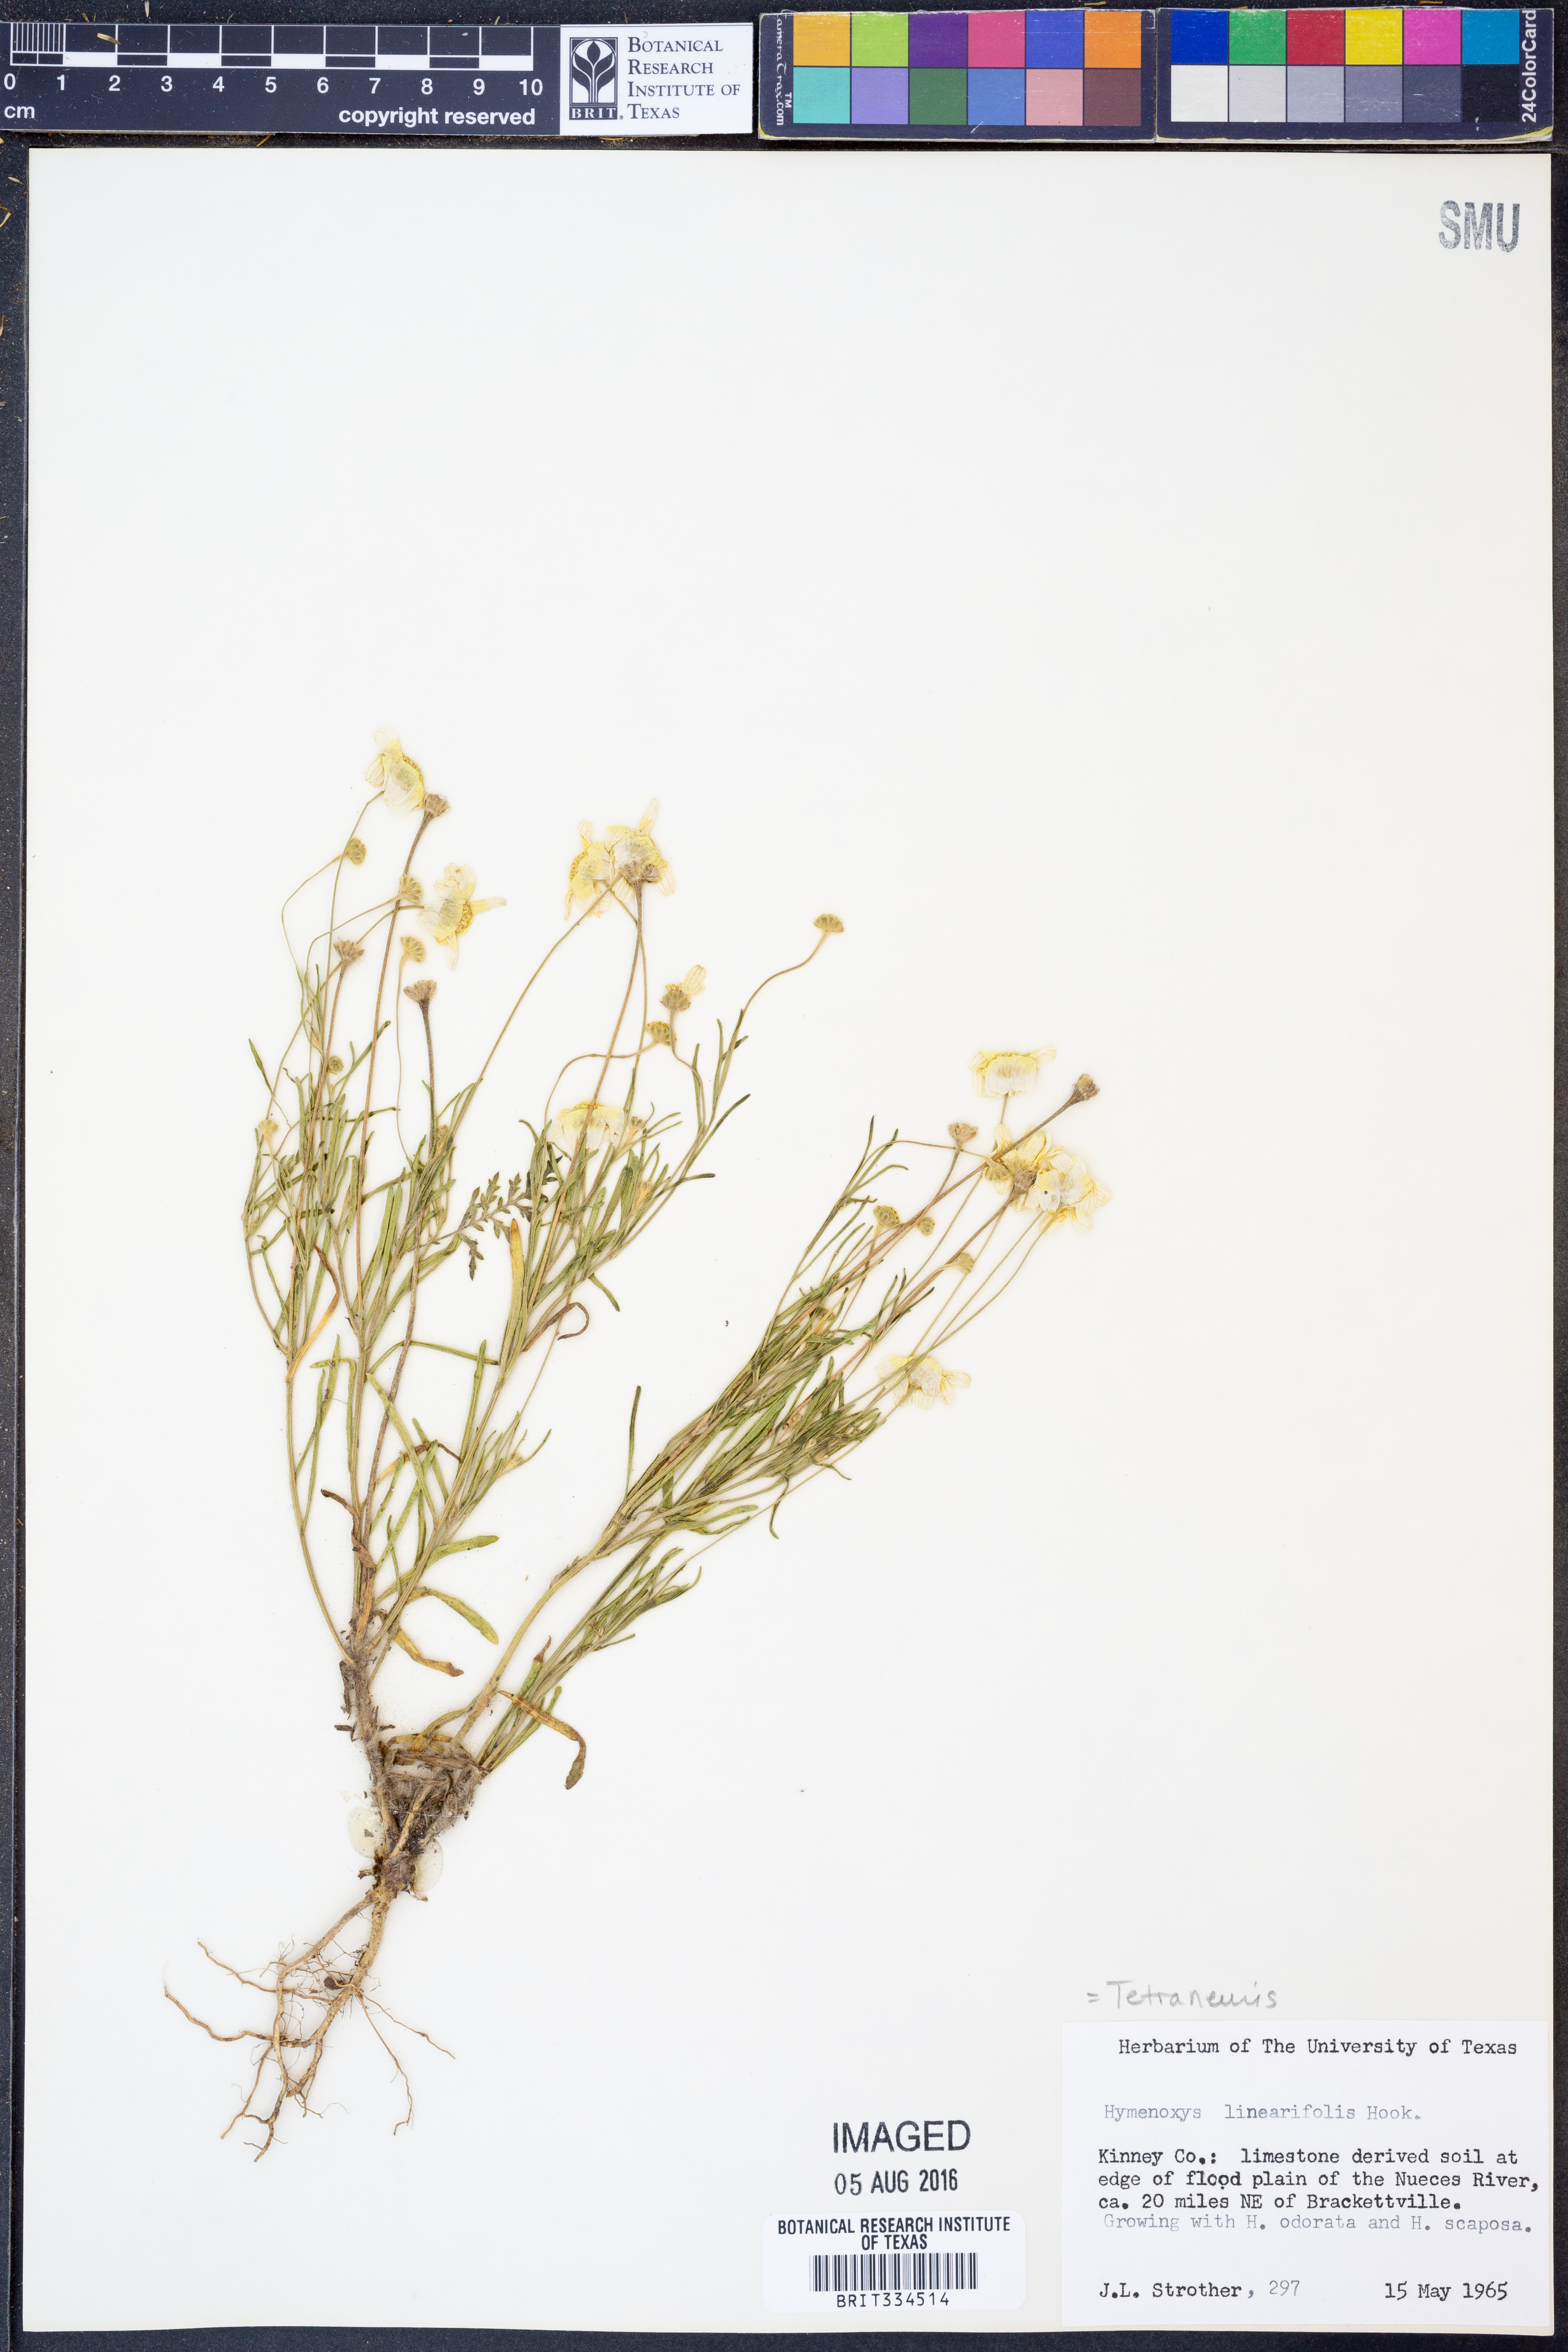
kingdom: Plantae
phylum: Tracheophyta
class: Magnoliopsida
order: Asterales
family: Asteraceae
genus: Tetraneuris
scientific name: Tetraneuris linearifolia
